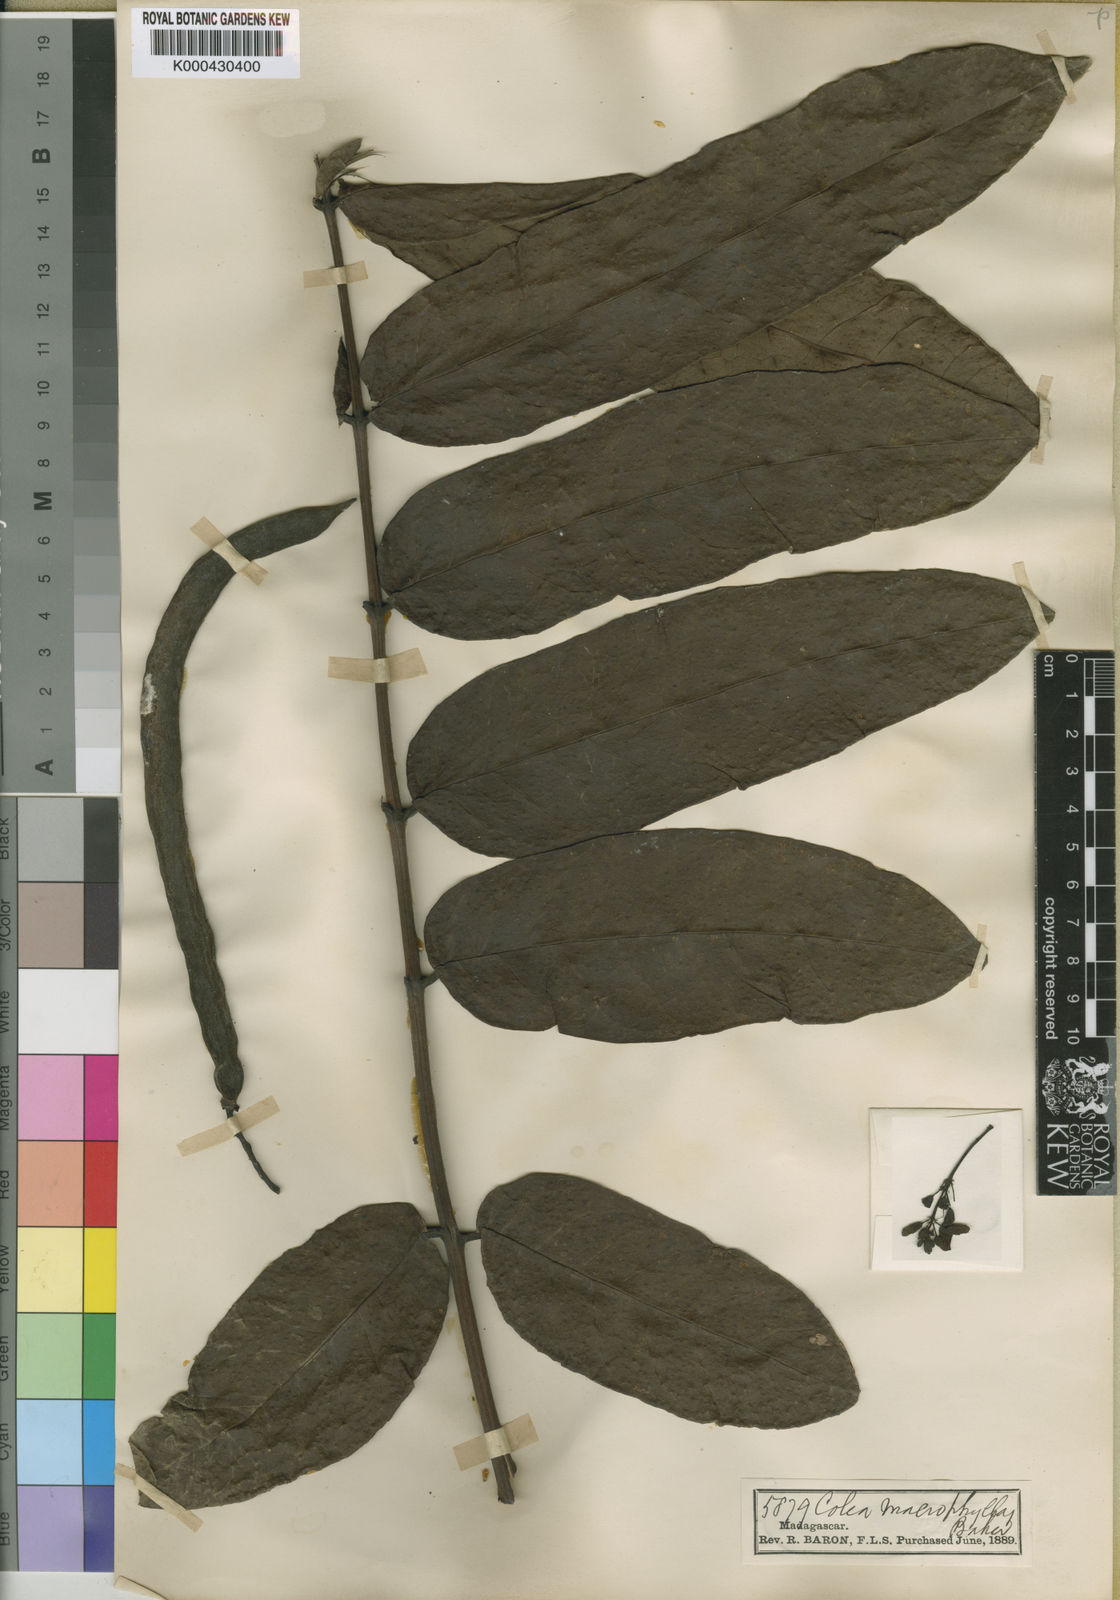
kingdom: Plantae
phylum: Tracheophyta
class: Magnoliopsida
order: Lamiales
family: Bignoniaceae
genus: Colea
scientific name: Colea
